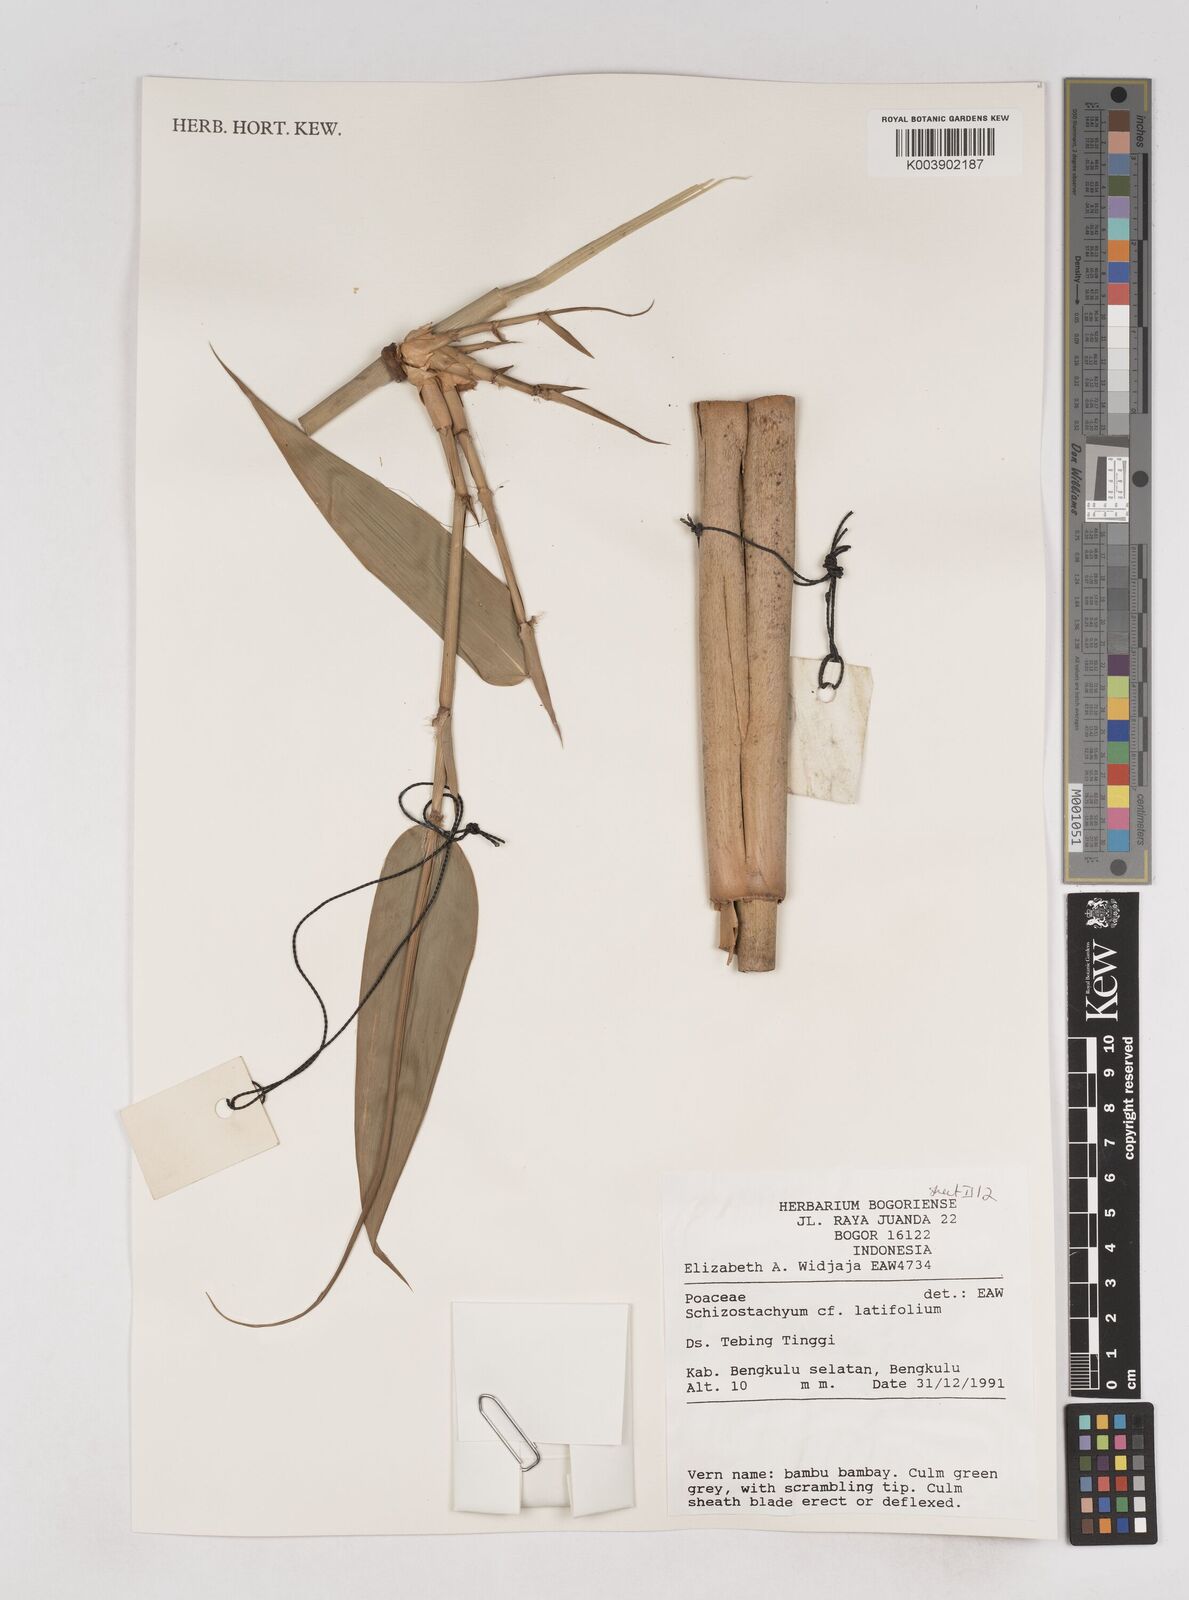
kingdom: Plantae
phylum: Tracheophyta
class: Liliopsida
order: Poales
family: Poaceae
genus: Schizostachyum
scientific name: Schizostachyum latifolium
